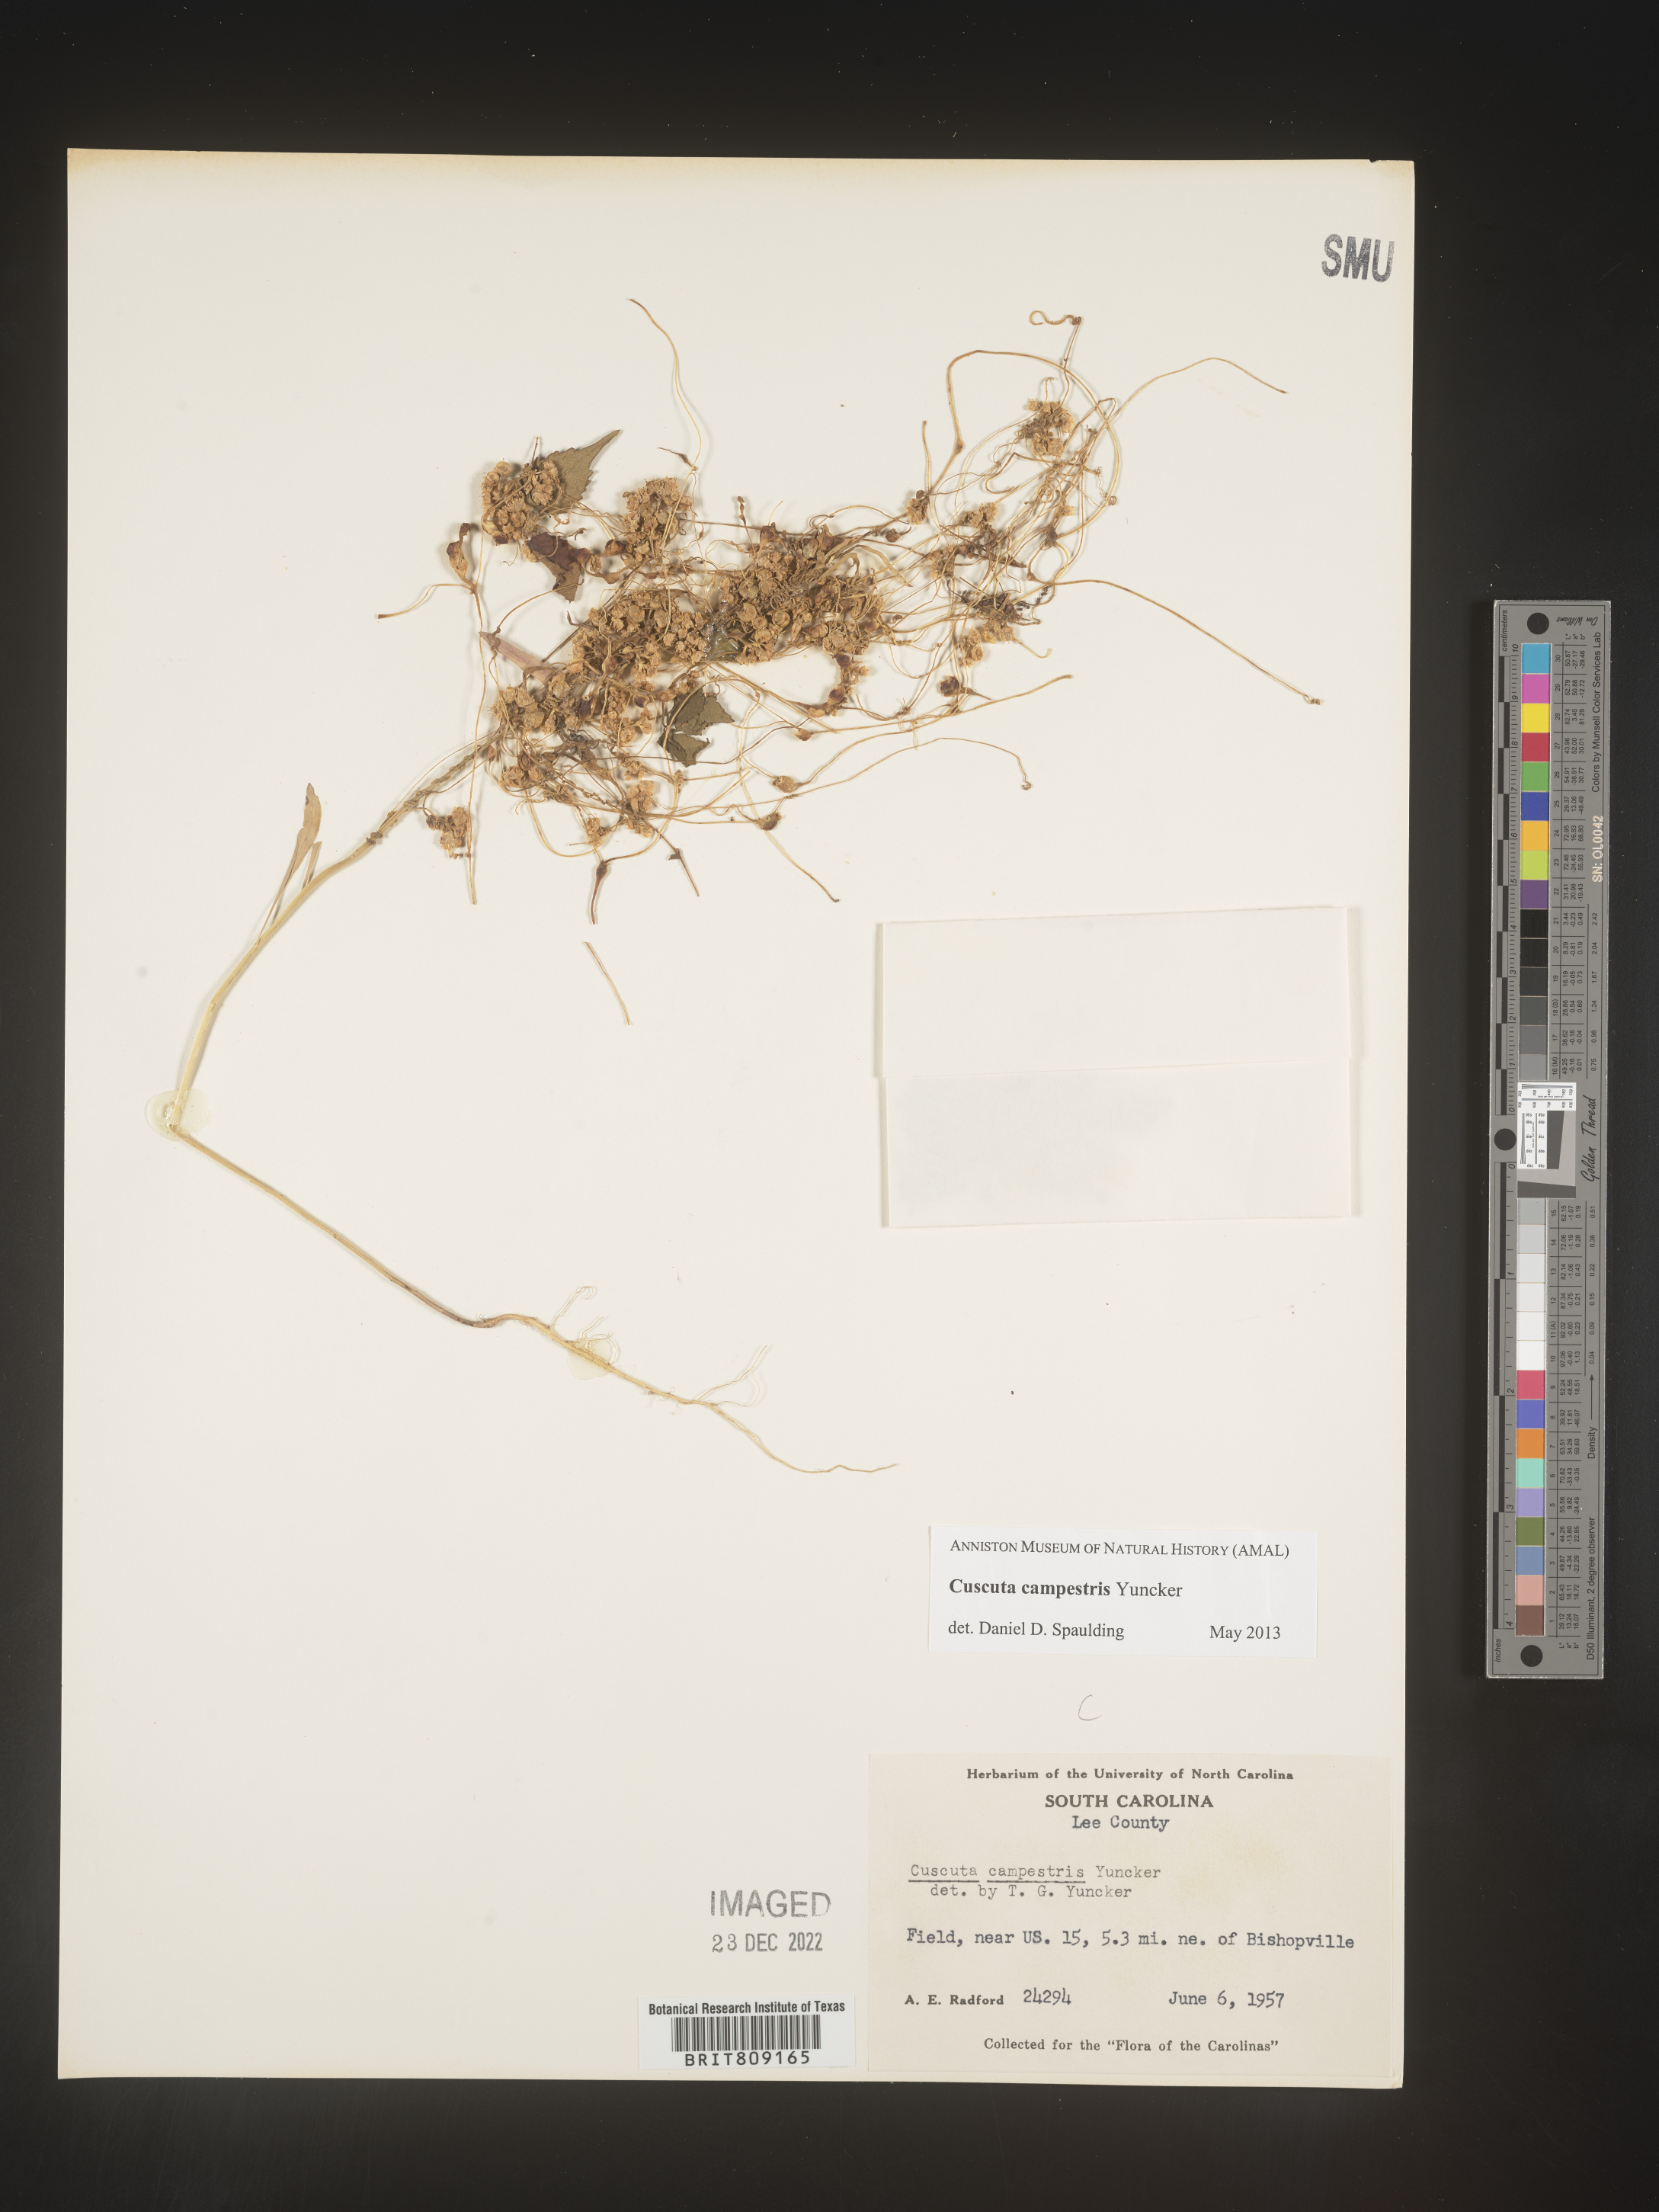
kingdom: Plantae
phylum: Tracheophyta
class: Magnoliopsida
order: Solanales
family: Convolvulaceae
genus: Cuscuta
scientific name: Cuscuta campestris
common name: Yellow dodder
